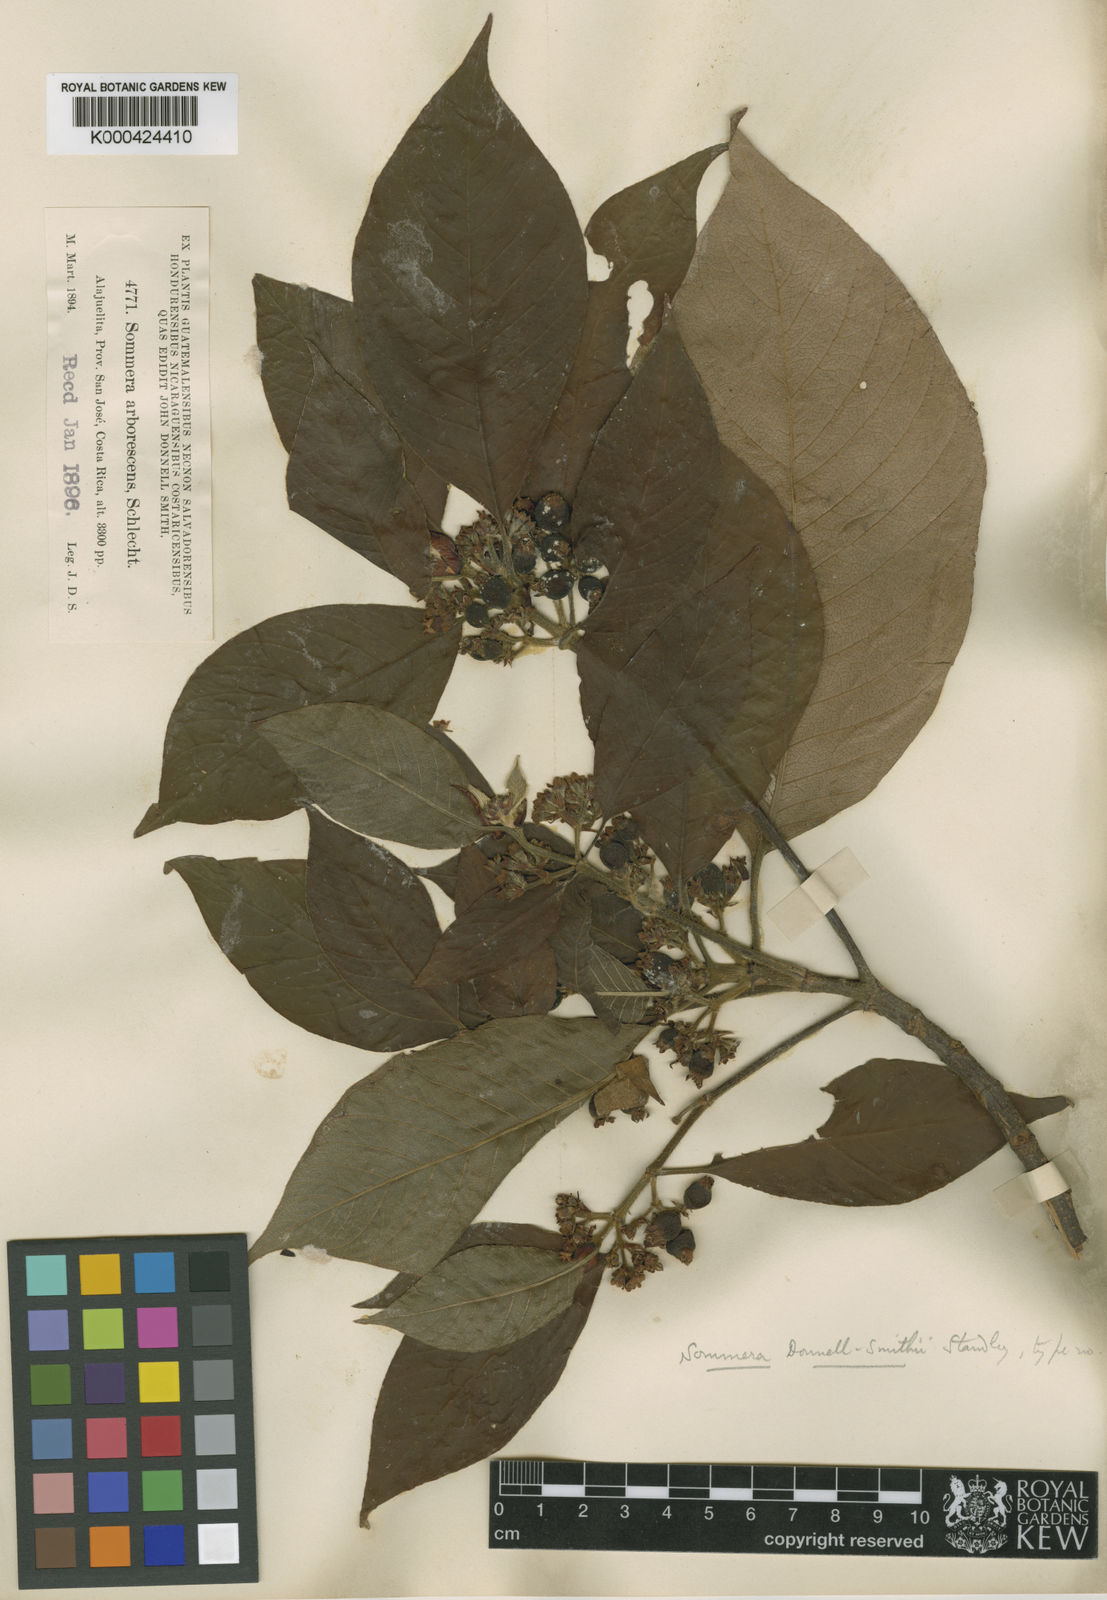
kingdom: Plantae
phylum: Tracheophyta
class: Magnoliopsida
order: Gentianales
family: Rubiaceae
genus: Sommera
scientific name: Sommera donnell-smithii
